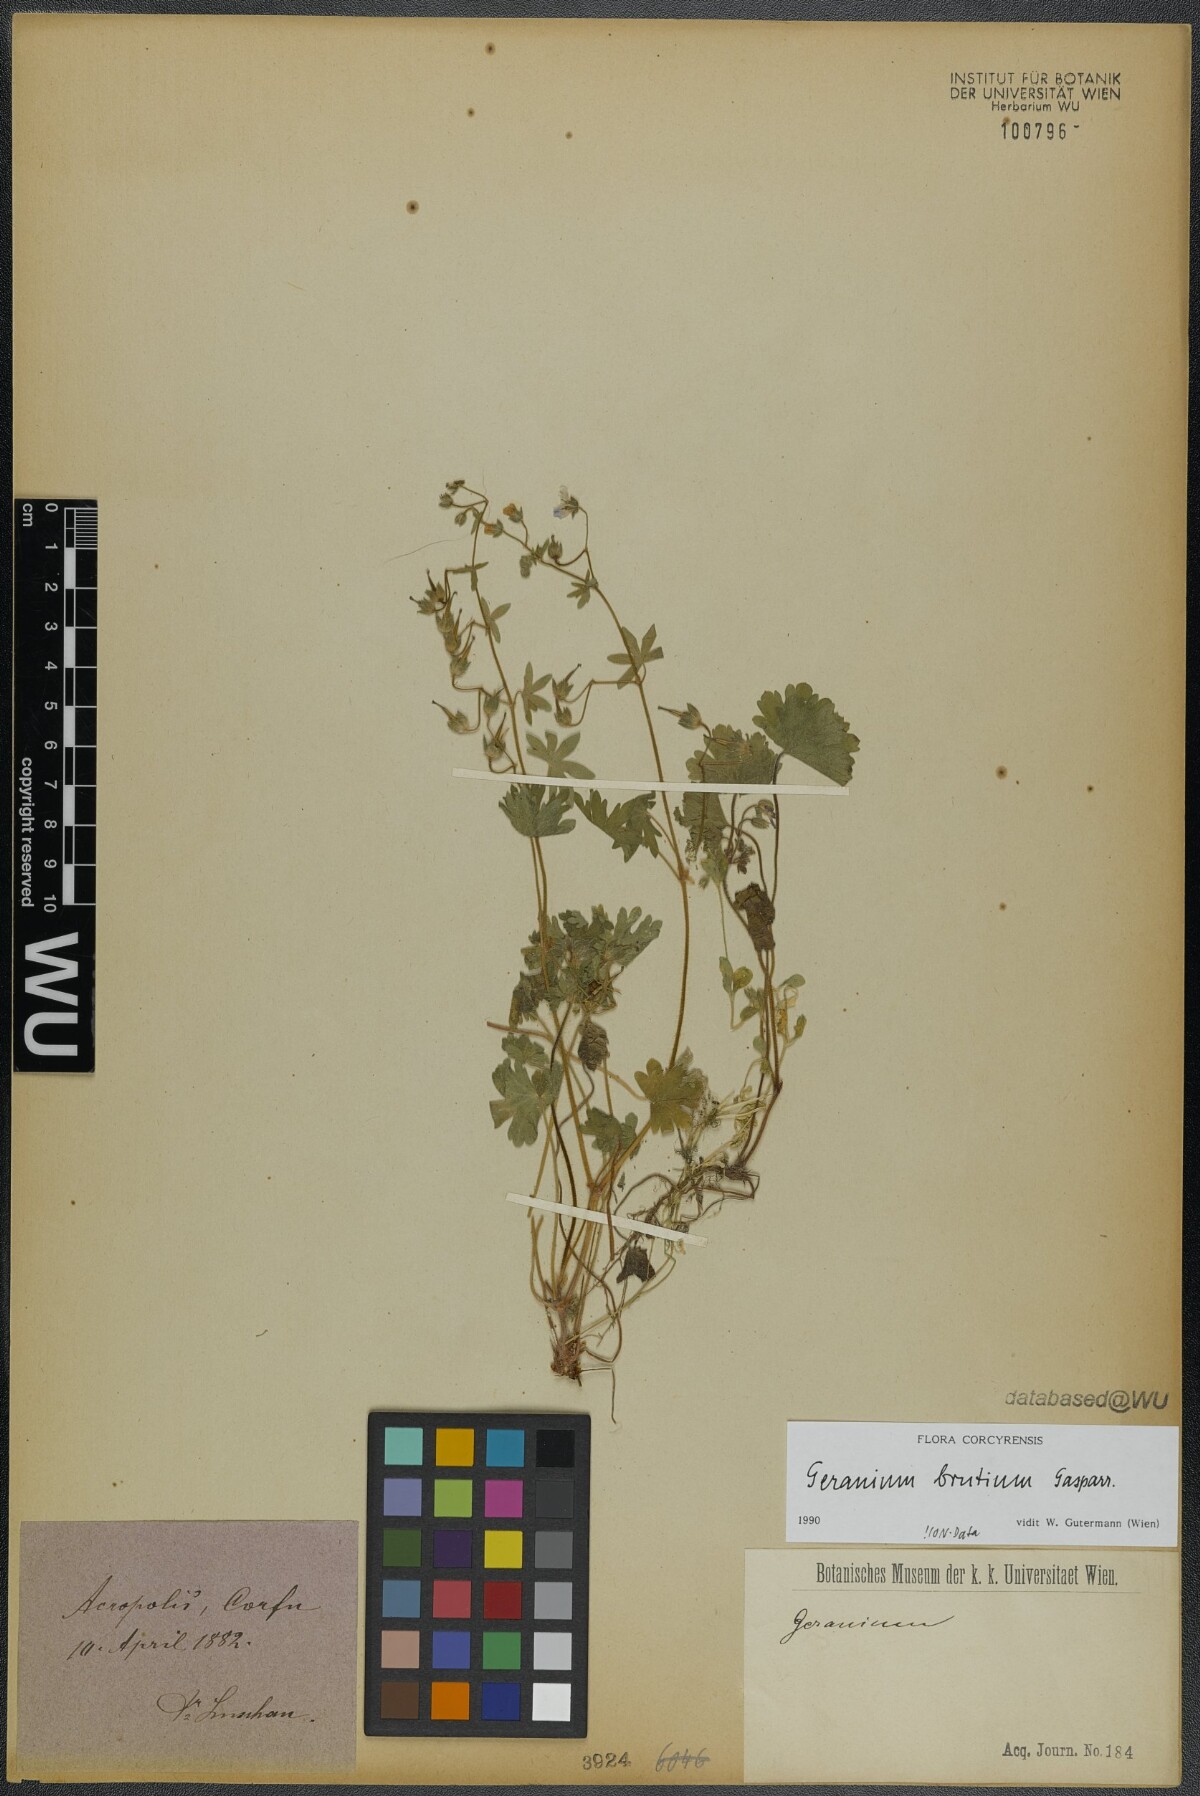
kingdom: Plantae
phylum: Tracheophyta
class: Magnoliopsida
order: Geraniales
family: Geraniaceae
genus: Geranium
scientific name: Geranium molle
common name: Dove's-foot crane's-bill
